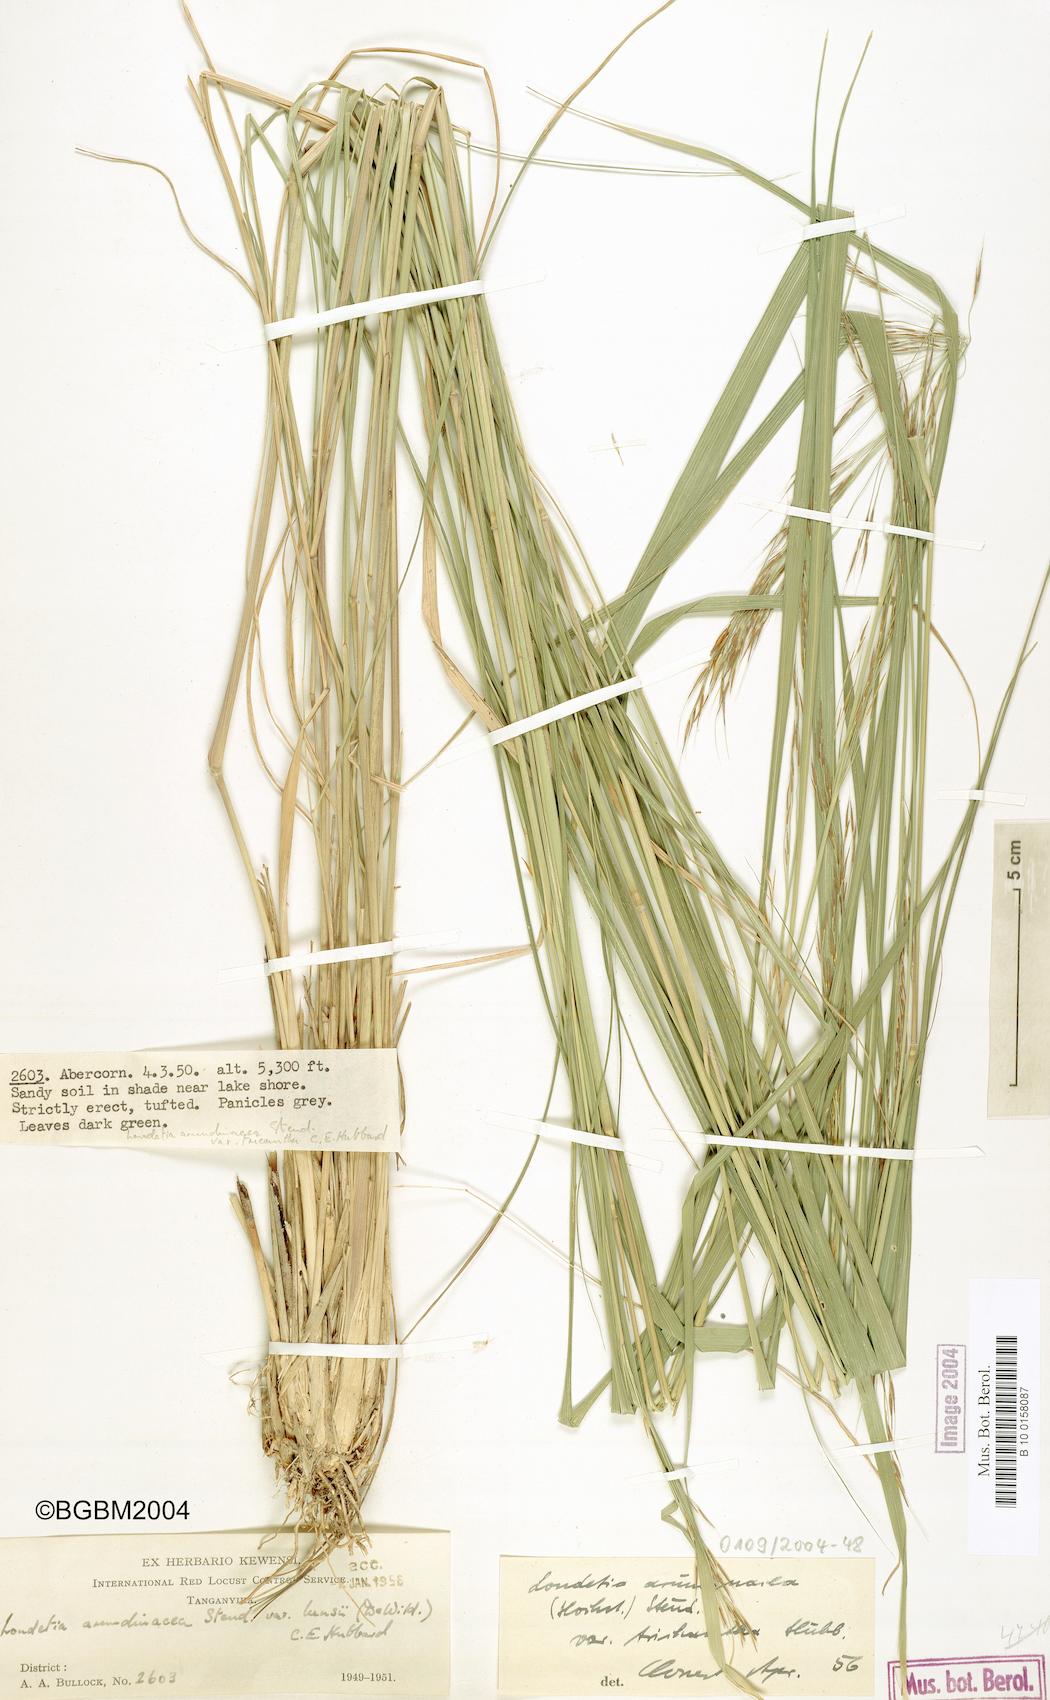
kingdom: Plantae
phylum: Tracheophyta
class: Liliopsida
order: Poales
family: Poaceae
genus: Loudetia
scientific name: Loudetia arundinacea
